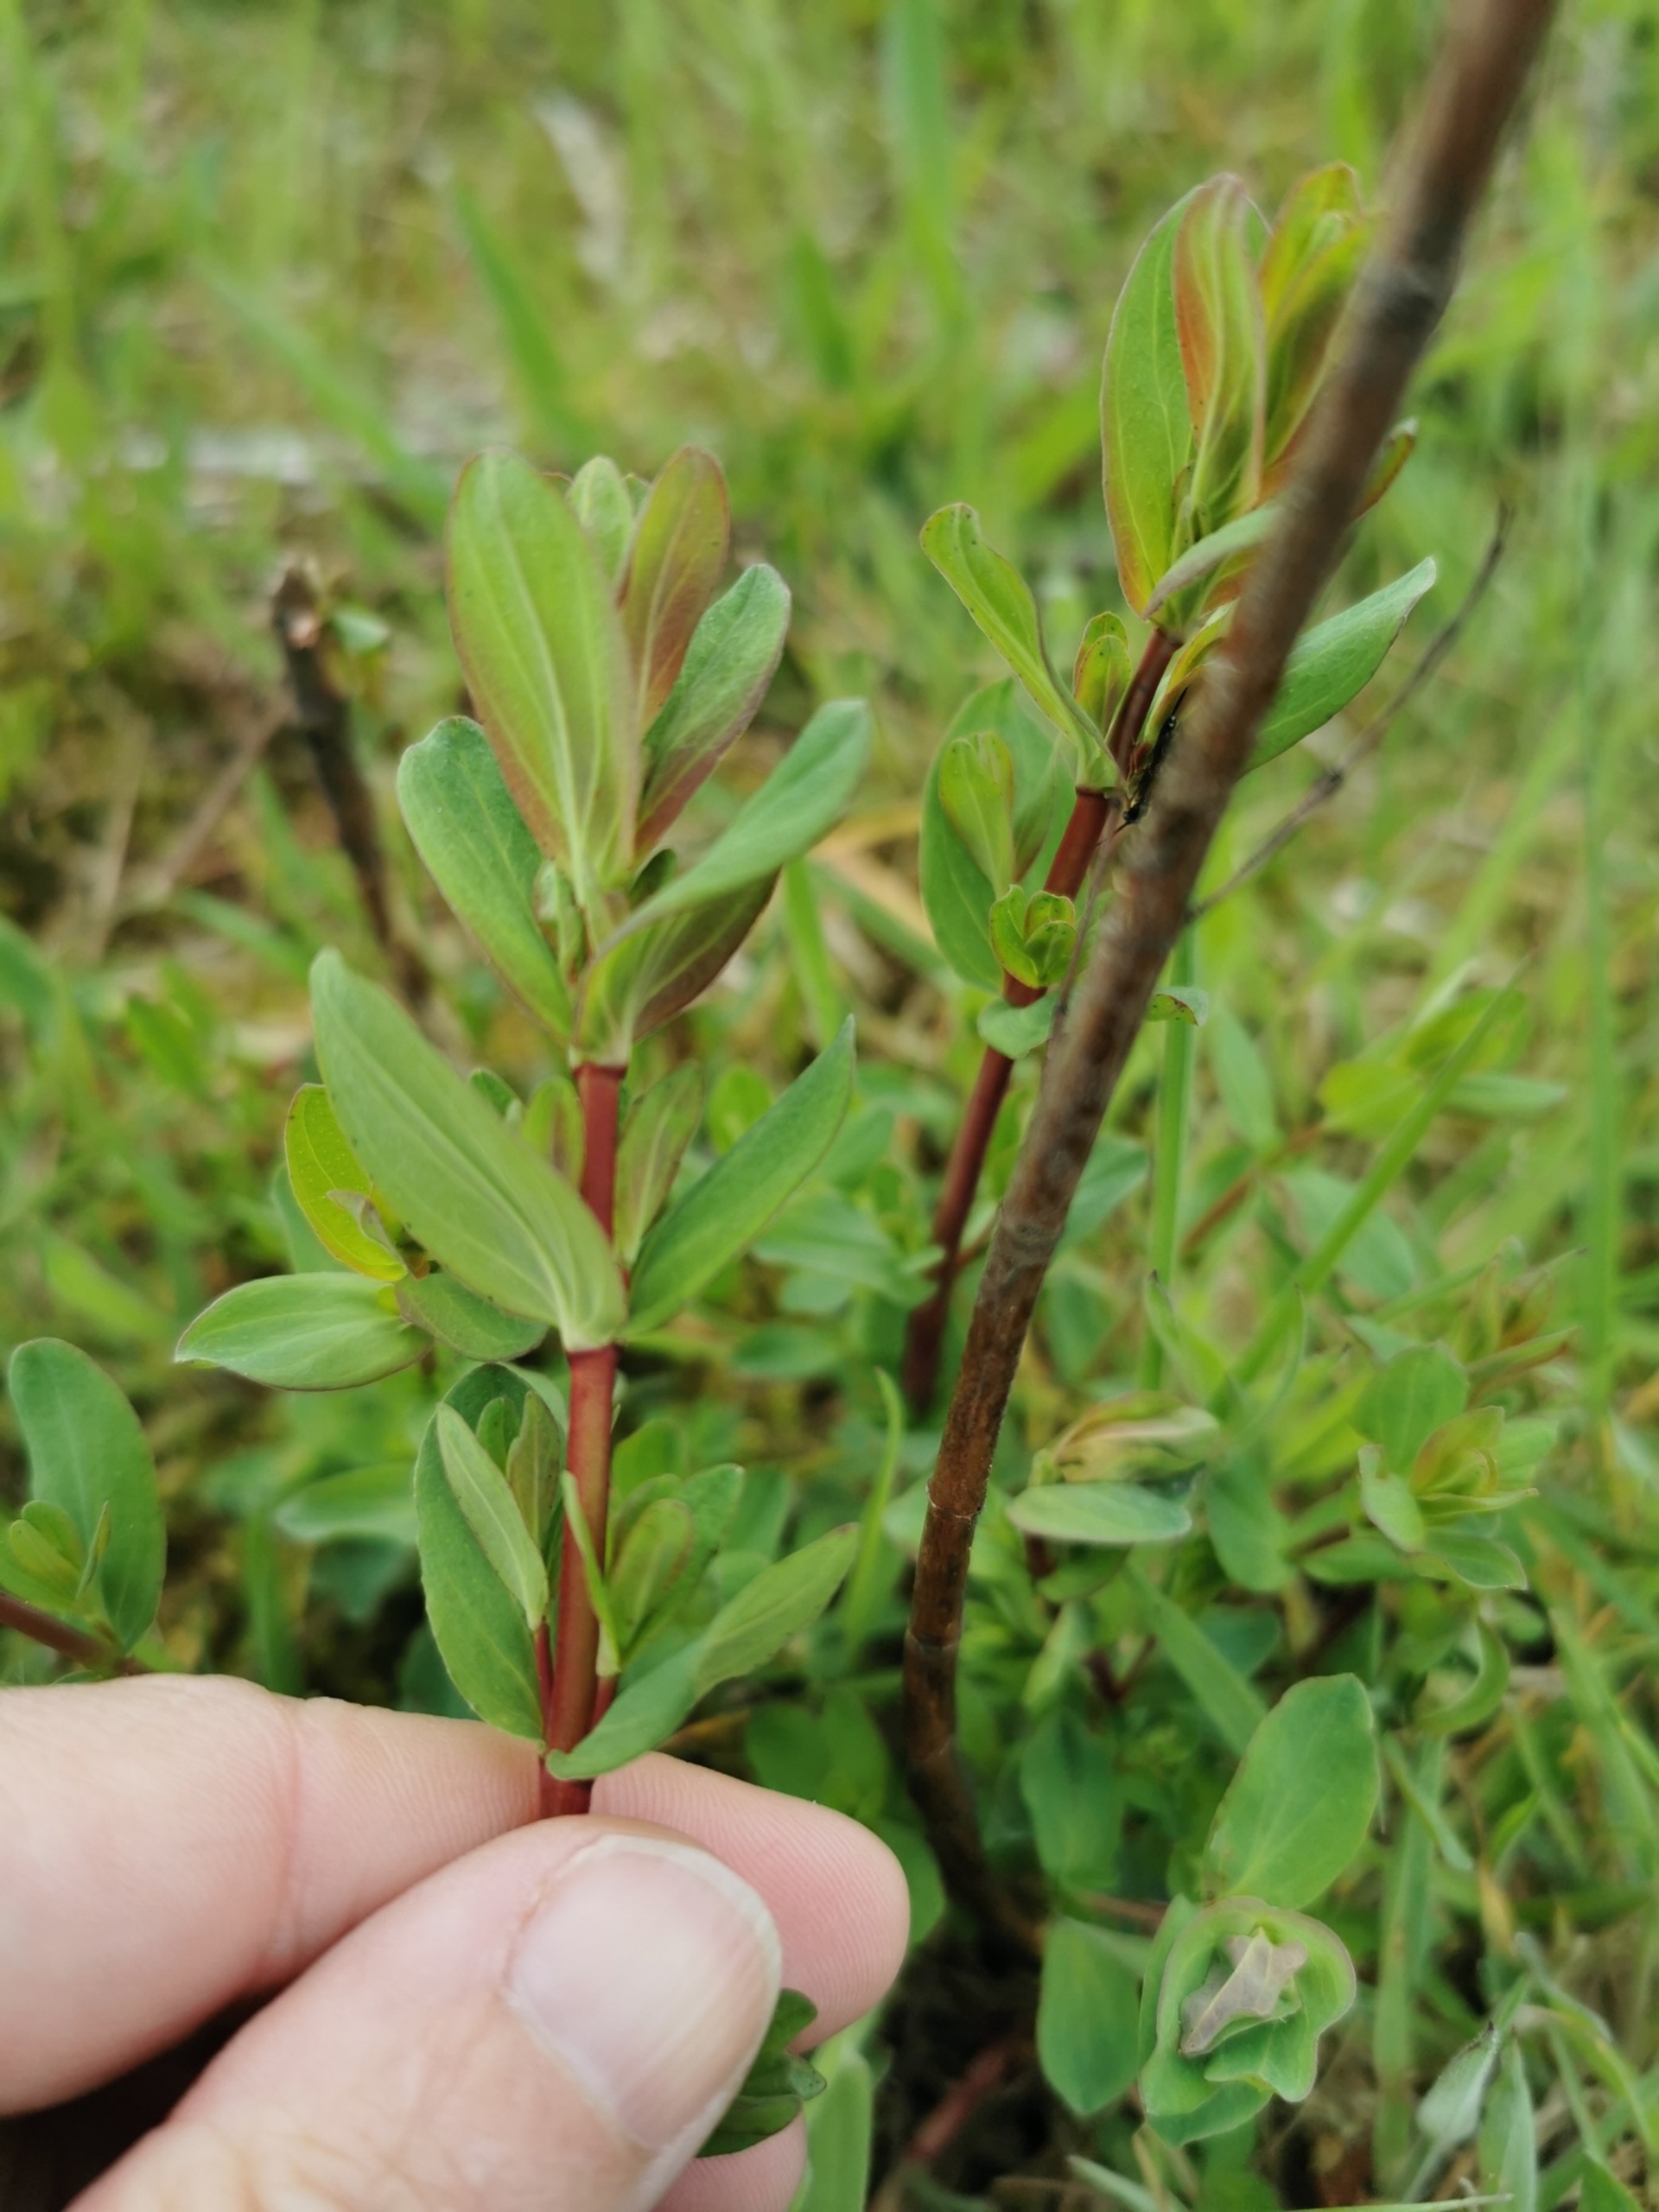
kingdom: Plantae
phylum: Tracheophyta
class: Magnoliopsida
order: Malpighiales
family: Hypericaceae
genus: Hypericum
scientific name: Hypericum perforatum
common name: Prikbladet perikon
